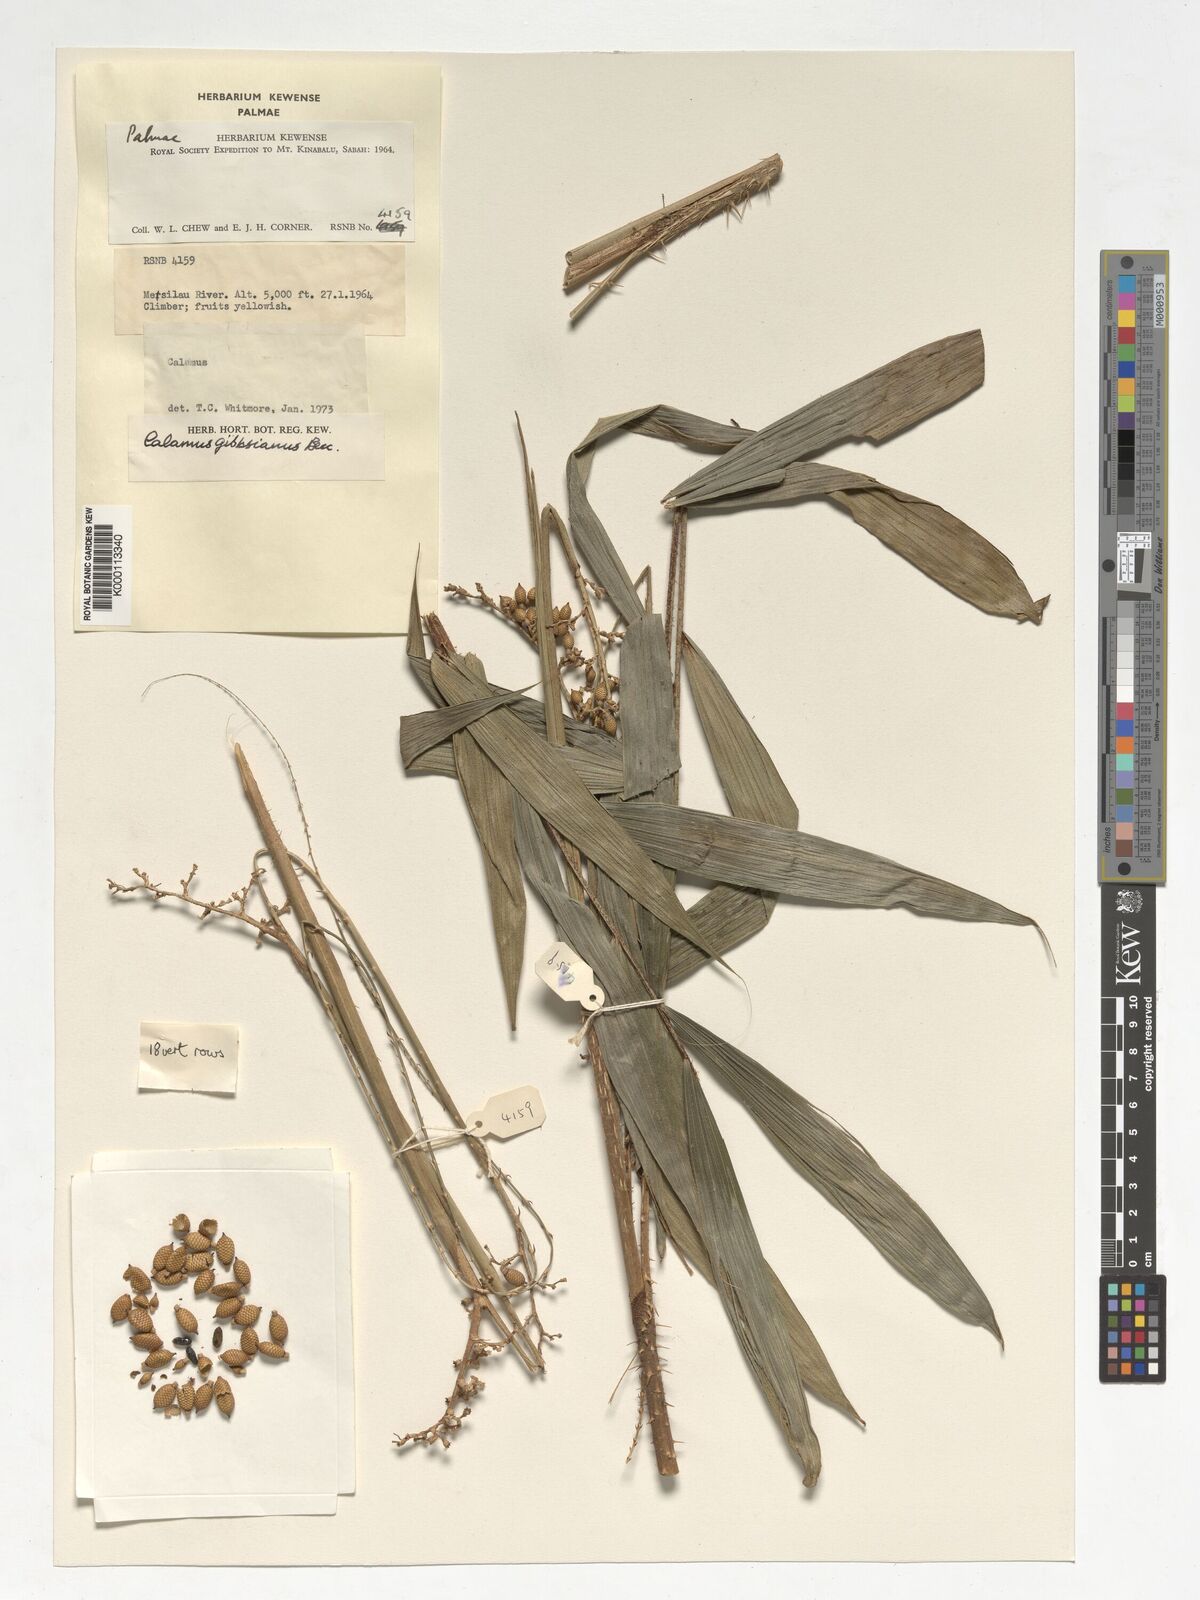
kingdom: Plantae
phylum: Tracheophyta
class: Liliopsida
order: Arecales
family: Arecaceae
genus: Calamus
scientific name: Calamus gibbsianus
